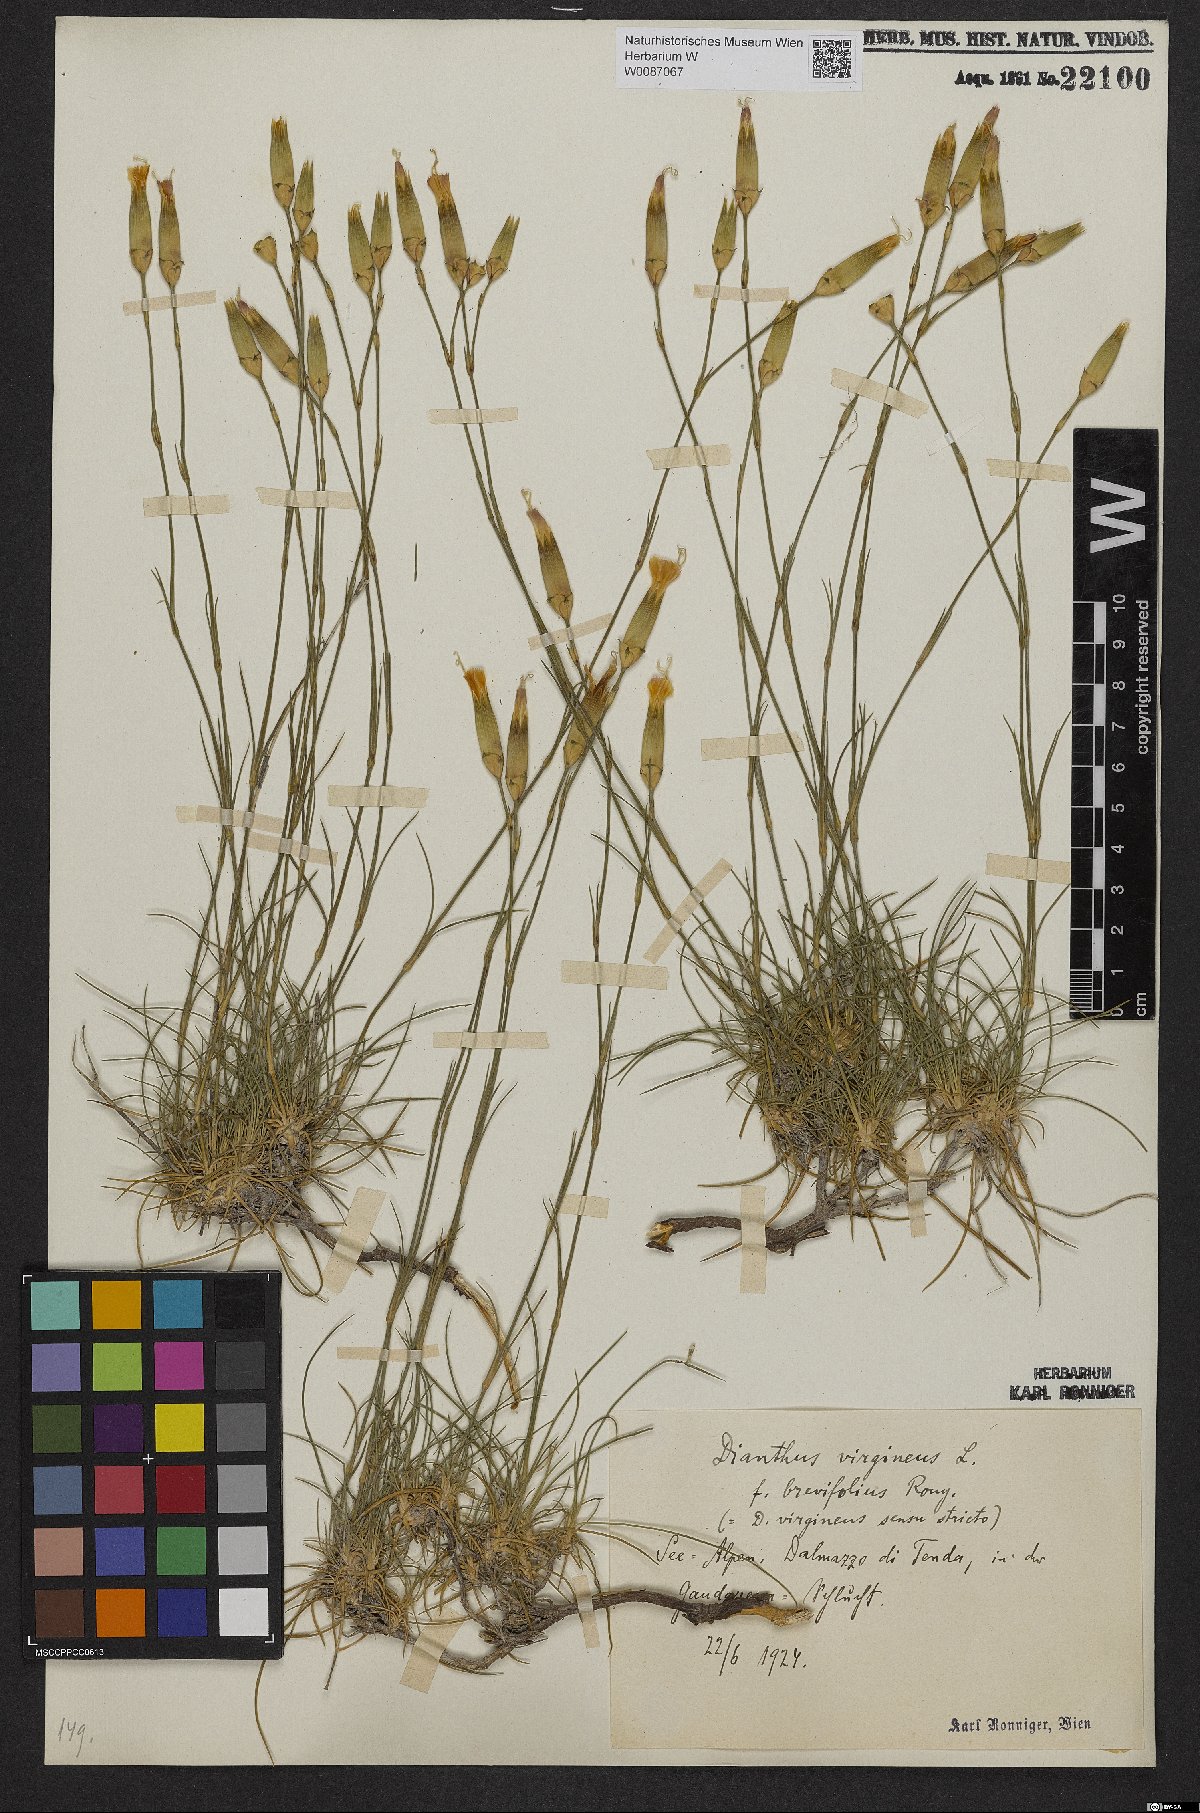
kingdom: Plantae
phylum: Tracheophyta
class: Magnoliopsida
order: Caryophyllales
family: Caryophyllaceae
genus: Dianthus
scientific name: Dianthus virgineus
